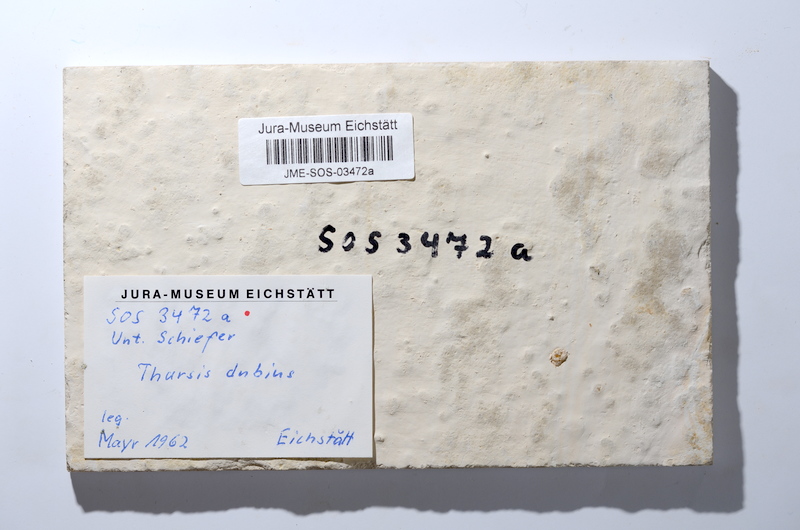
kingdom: Animalia
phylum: Chordata
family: Ascalaboidae
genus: Tharsis
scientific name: Tharsis dubius
